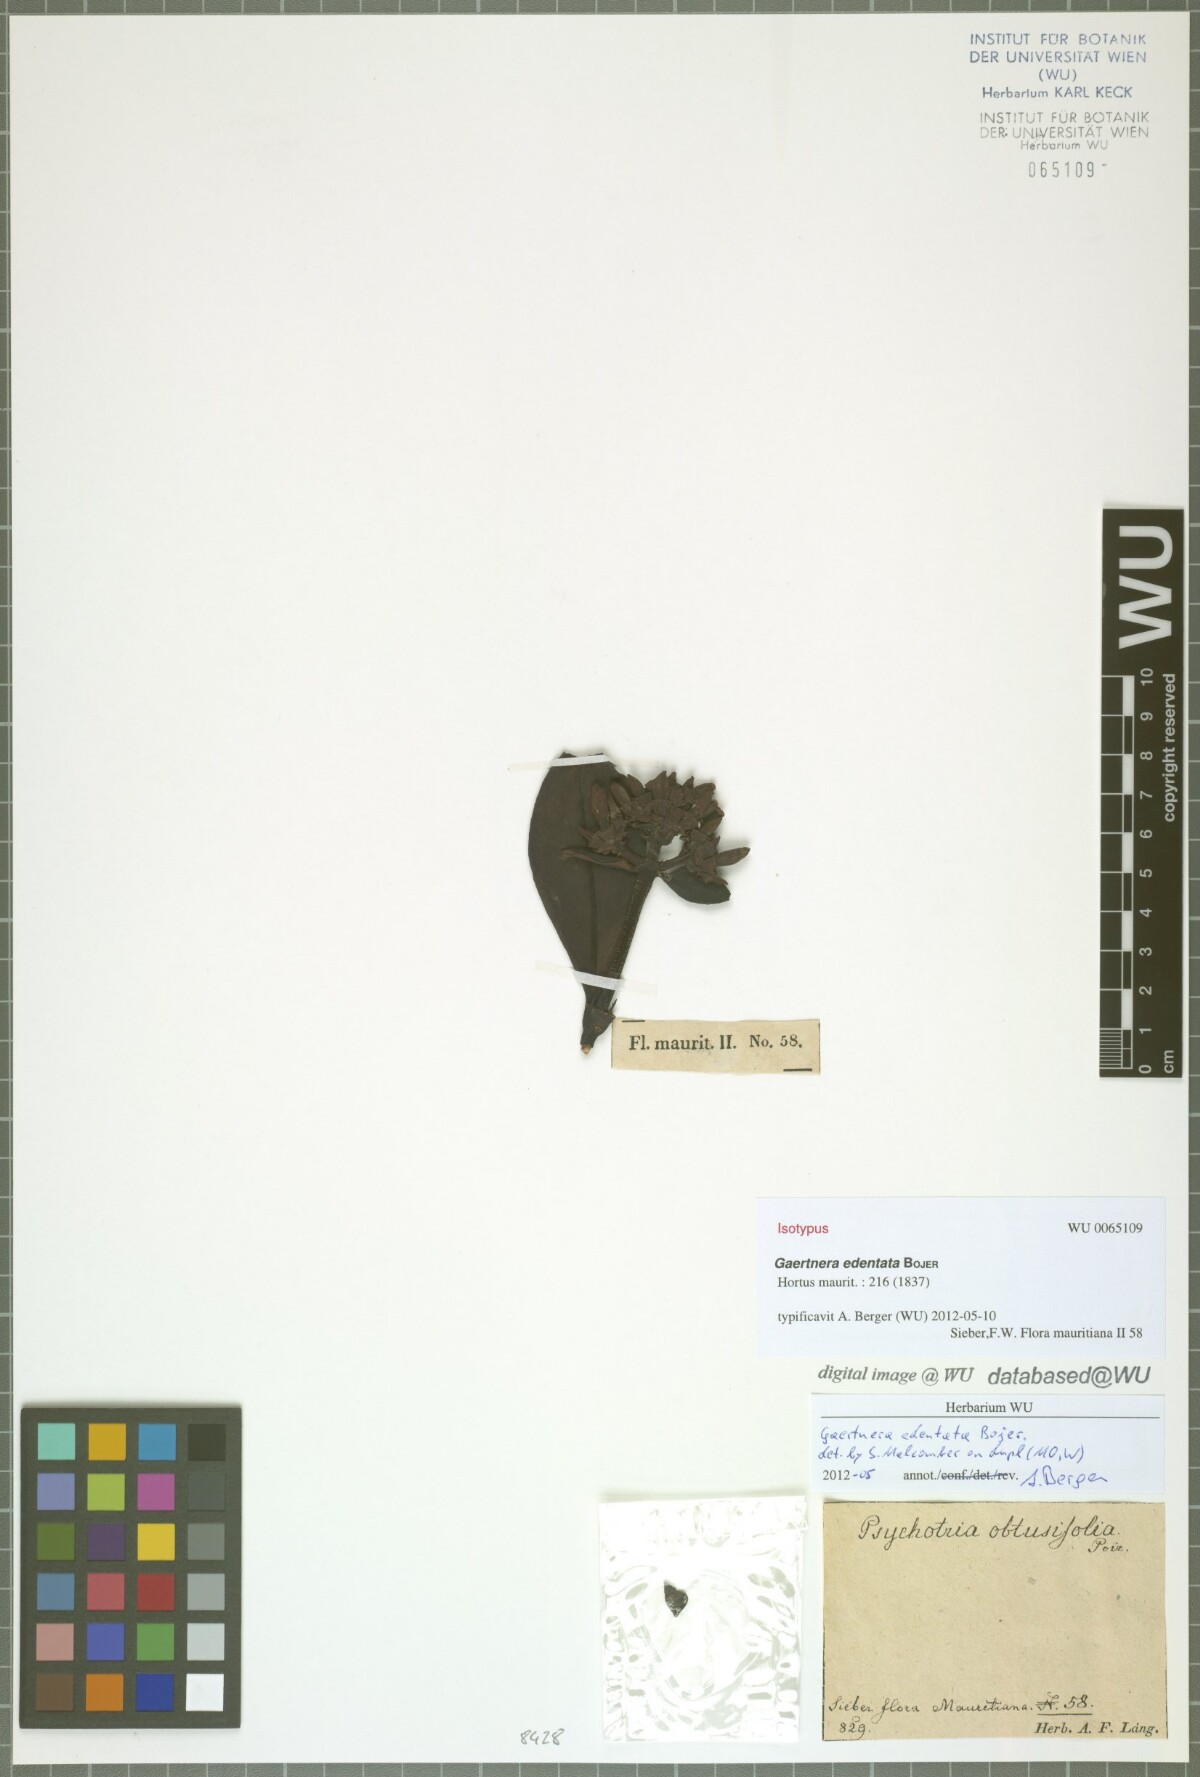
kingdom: Plantae
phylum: Tracheophyta
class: Magnoliopsida
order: Gentianales
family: Rubiaceae
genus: Gaertnera
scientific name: Gaertnera edentata
